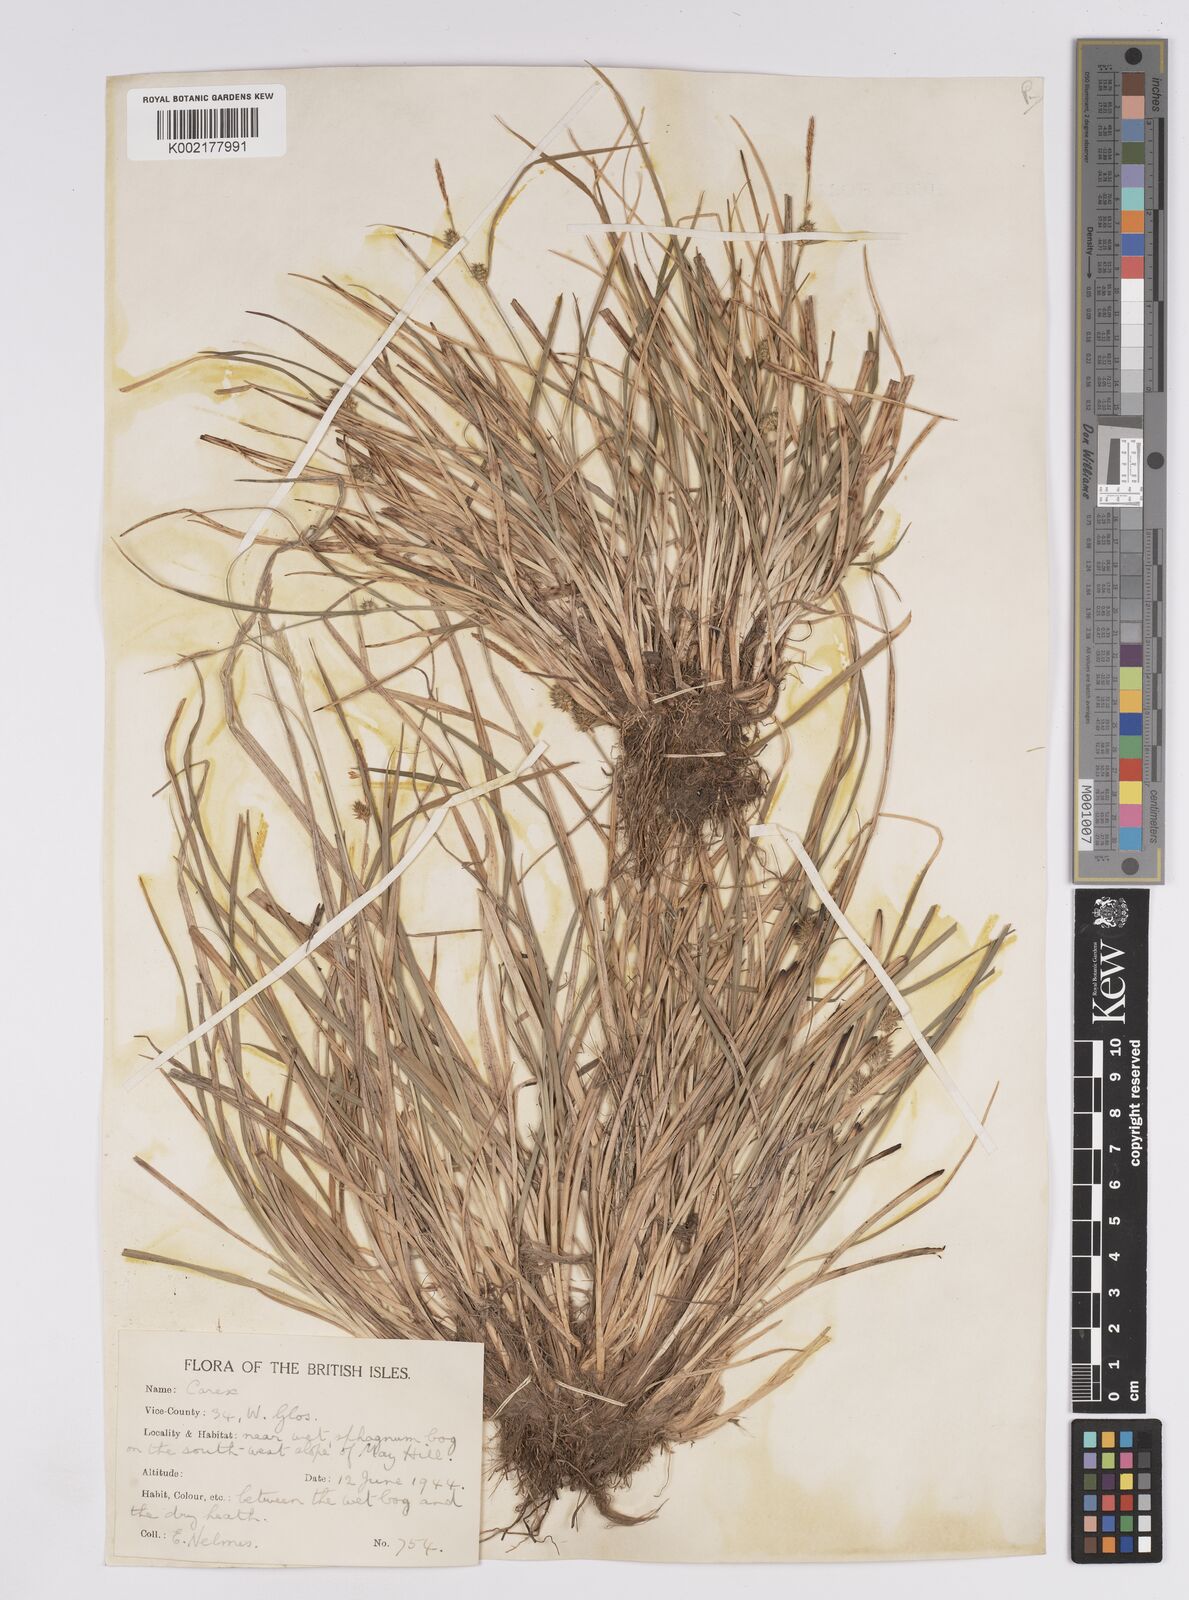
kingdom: Plantae
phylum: Tracheophyta
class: Liliopsida
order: Poales
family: Cyperaceae
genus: Carex
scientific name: Carex demissa
